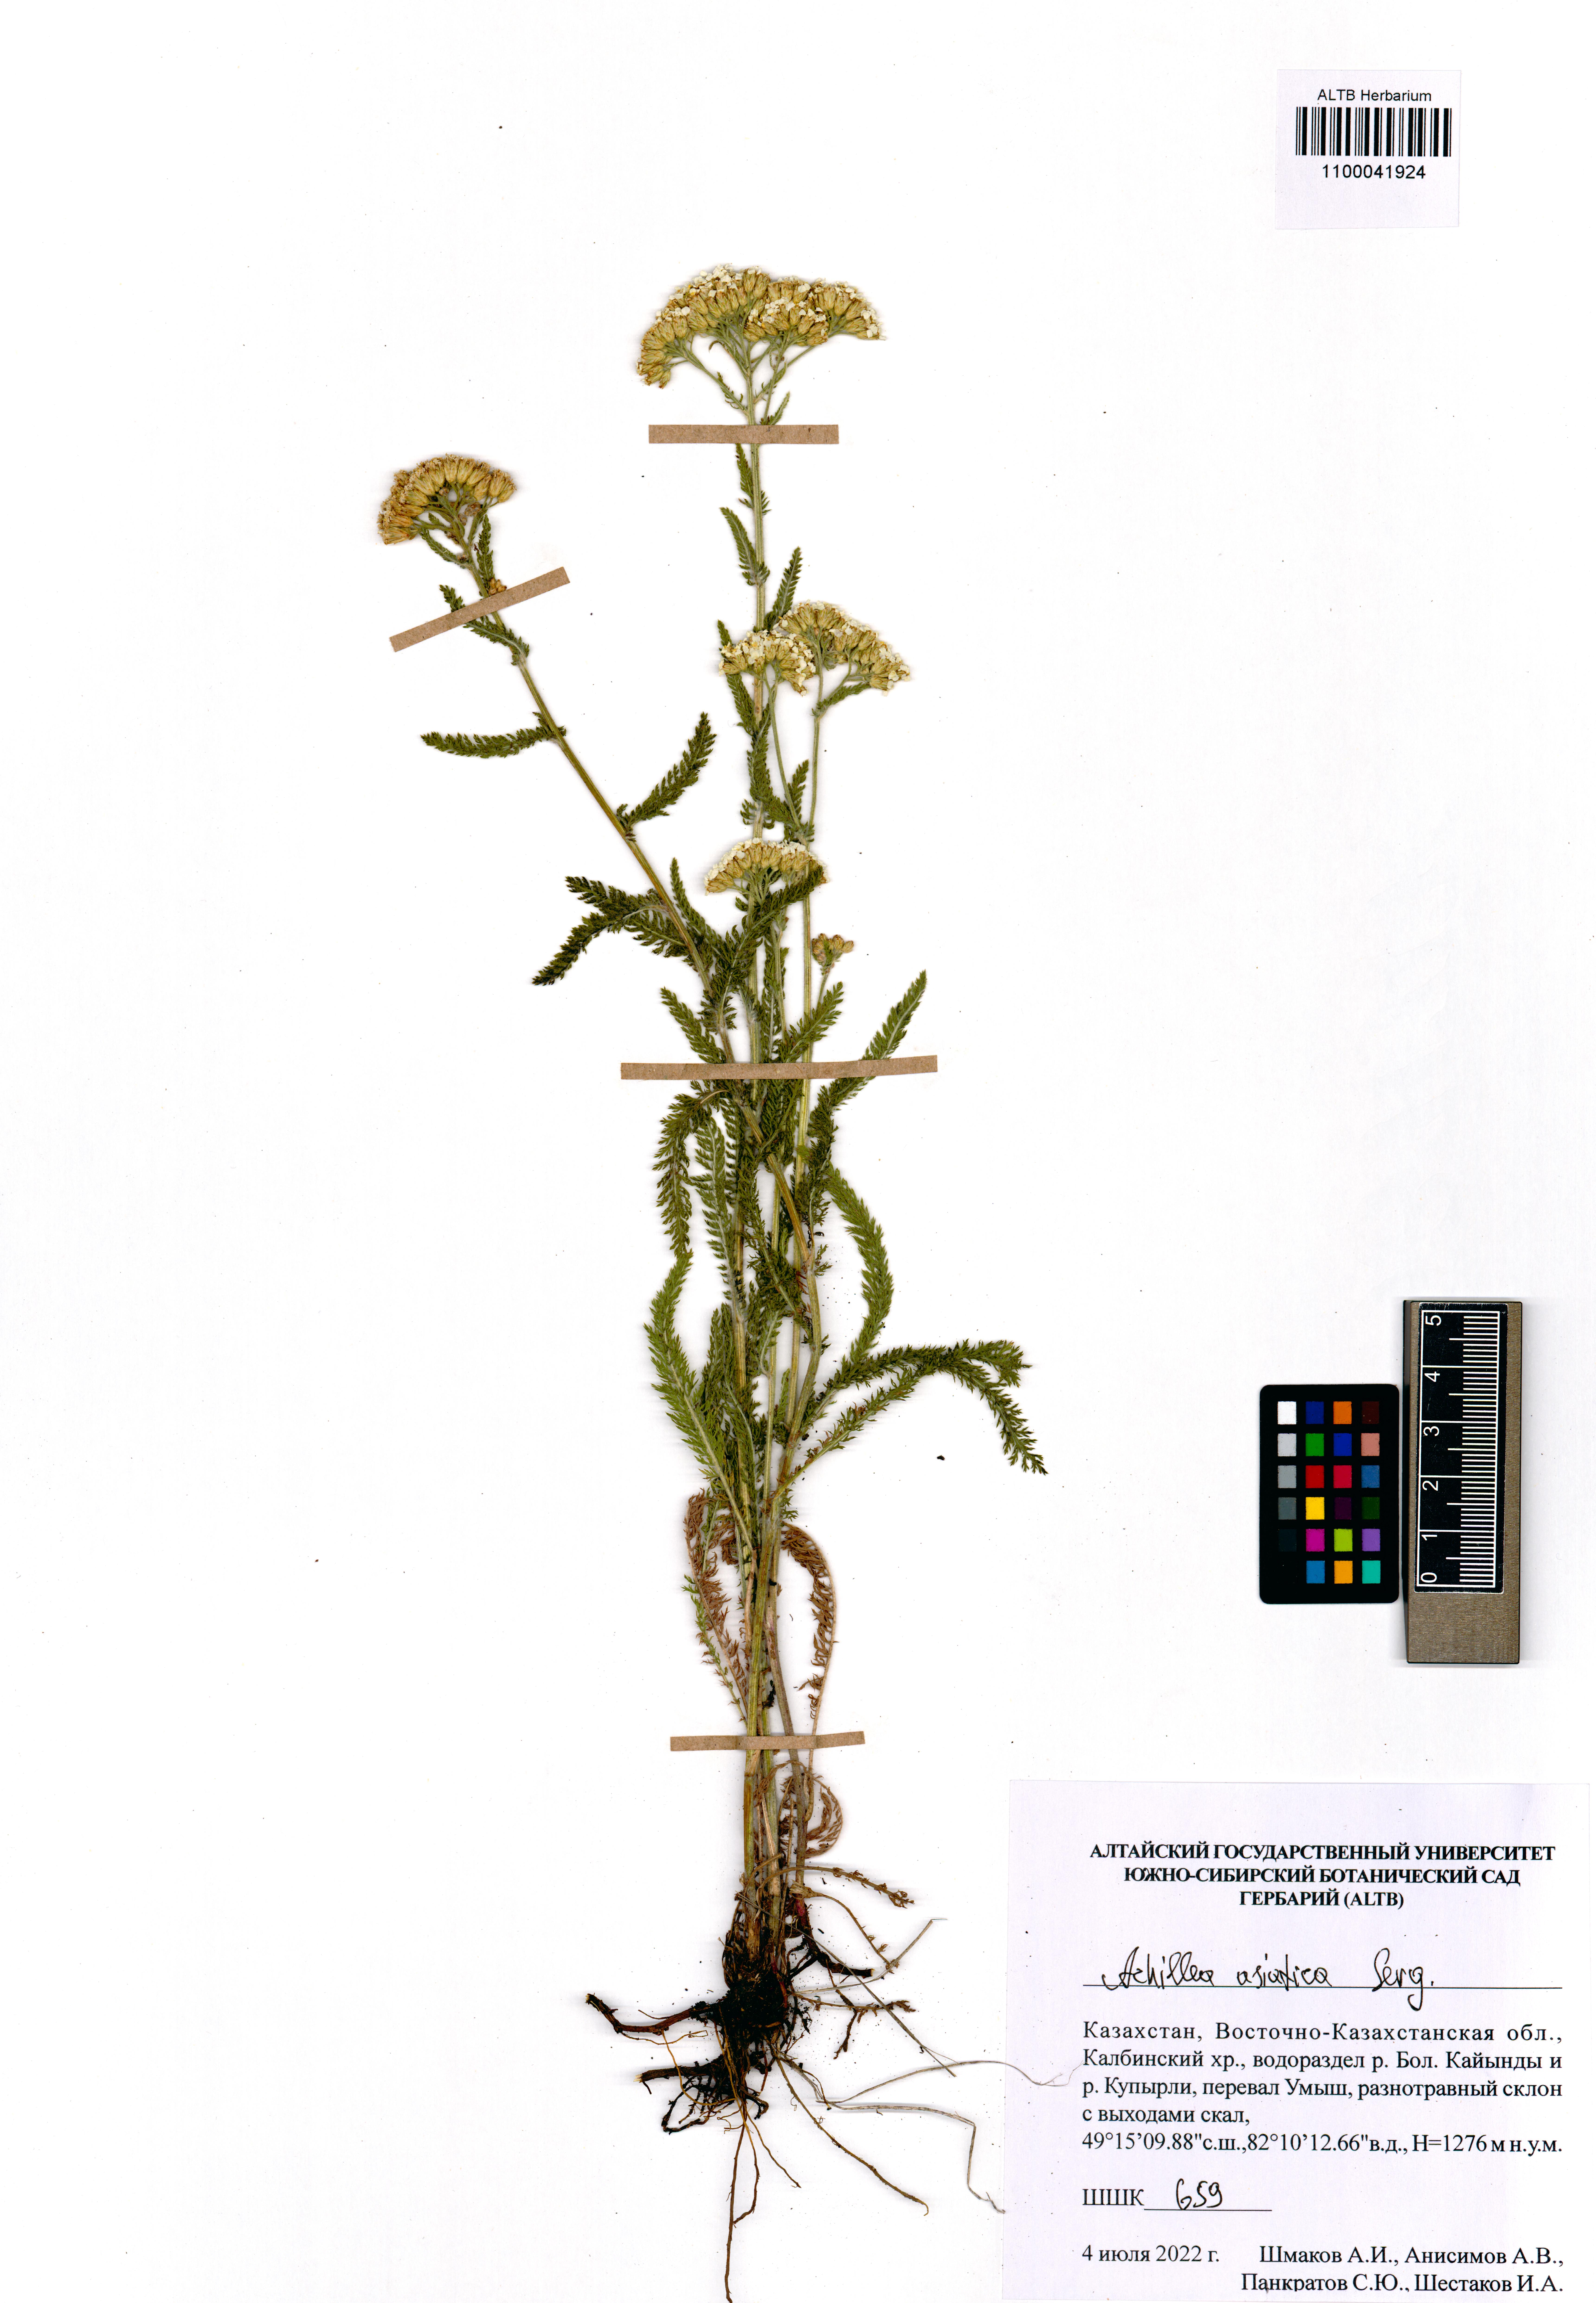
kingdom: Plantae
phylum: Tracheophyta
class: Magnoliopsida
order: Asterales
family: Asteraceae
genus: Achillea
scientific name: Achillea asiatica
